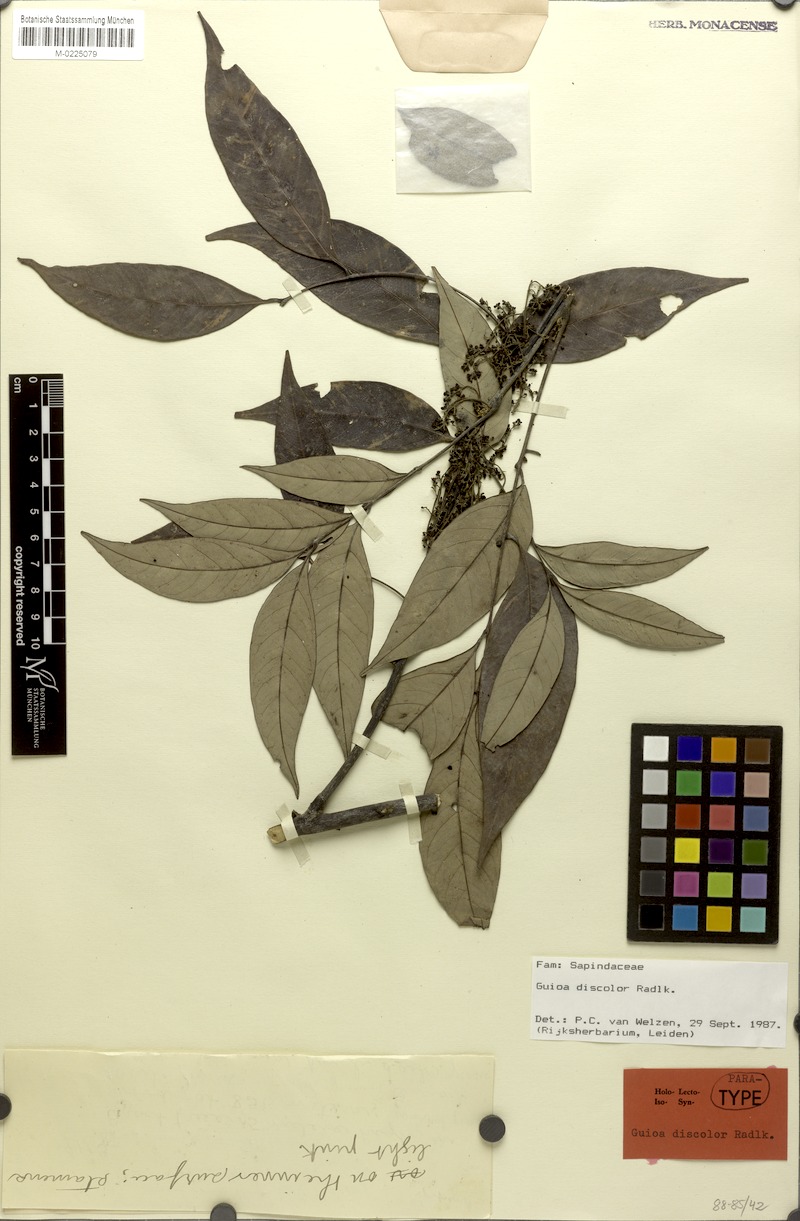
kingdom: Plantae
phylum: Tracheophyta
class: Magnoliopsida
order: Sapindales
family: Sapindaceae
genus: Guioa
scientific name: Guioa discolor
